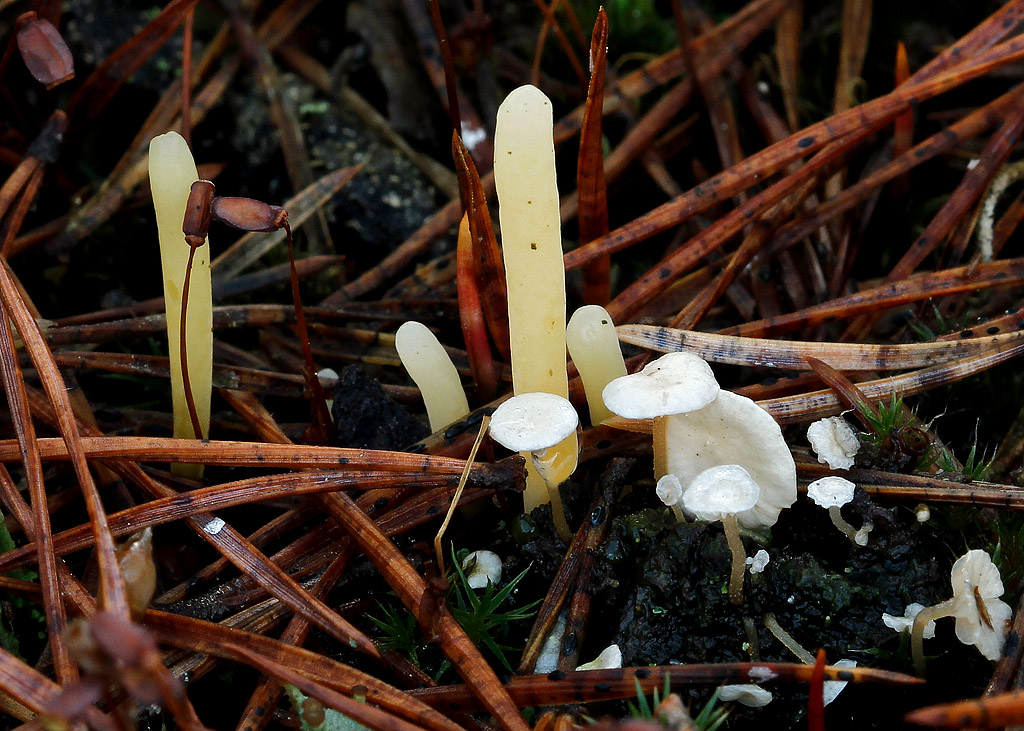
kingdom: Fungi
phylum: Basidiomycota
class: Agaricomycetes
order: Agaricales
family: Clavariaceae
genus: Clavaria
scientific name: Clavaria argillacea
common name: lerfarvet køllesvamp
